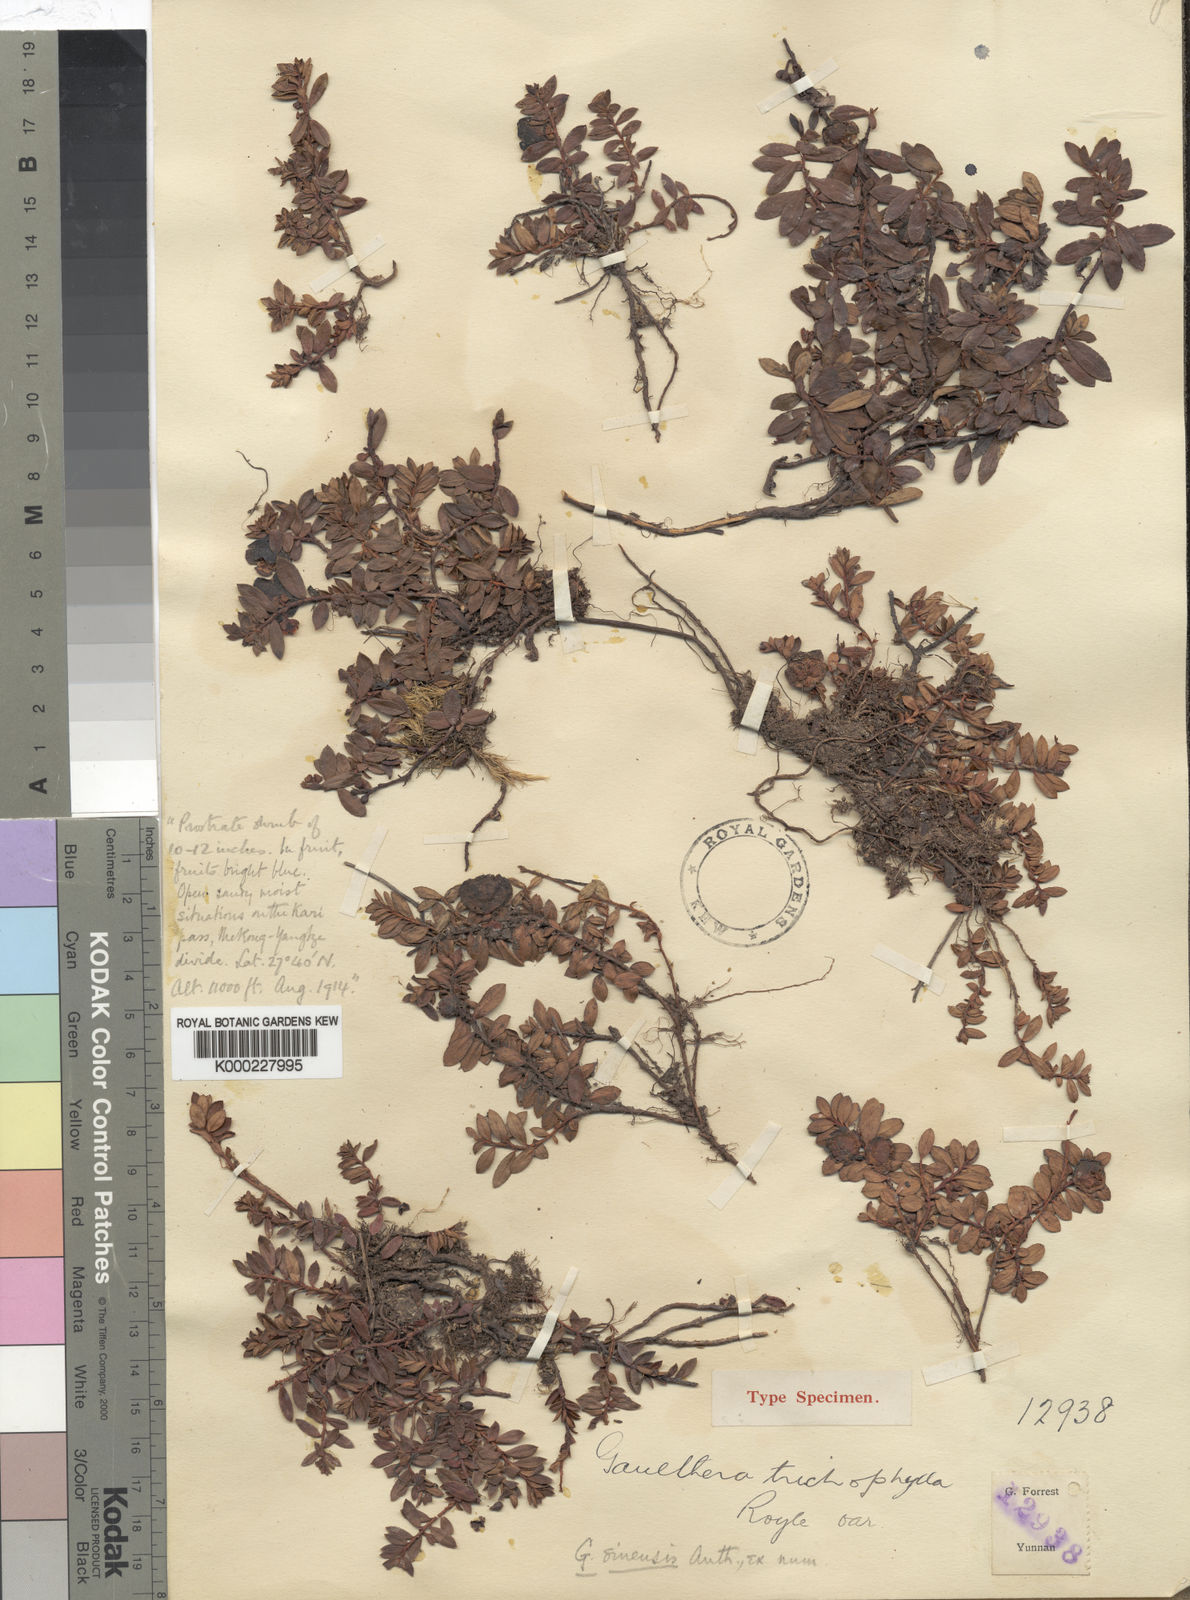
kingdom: Plantae
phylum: Tracheophyta
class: Magnoliopsida
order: Ericales
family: Ericaceae
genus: Gaultheria
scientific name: Gaultheria sinensis
